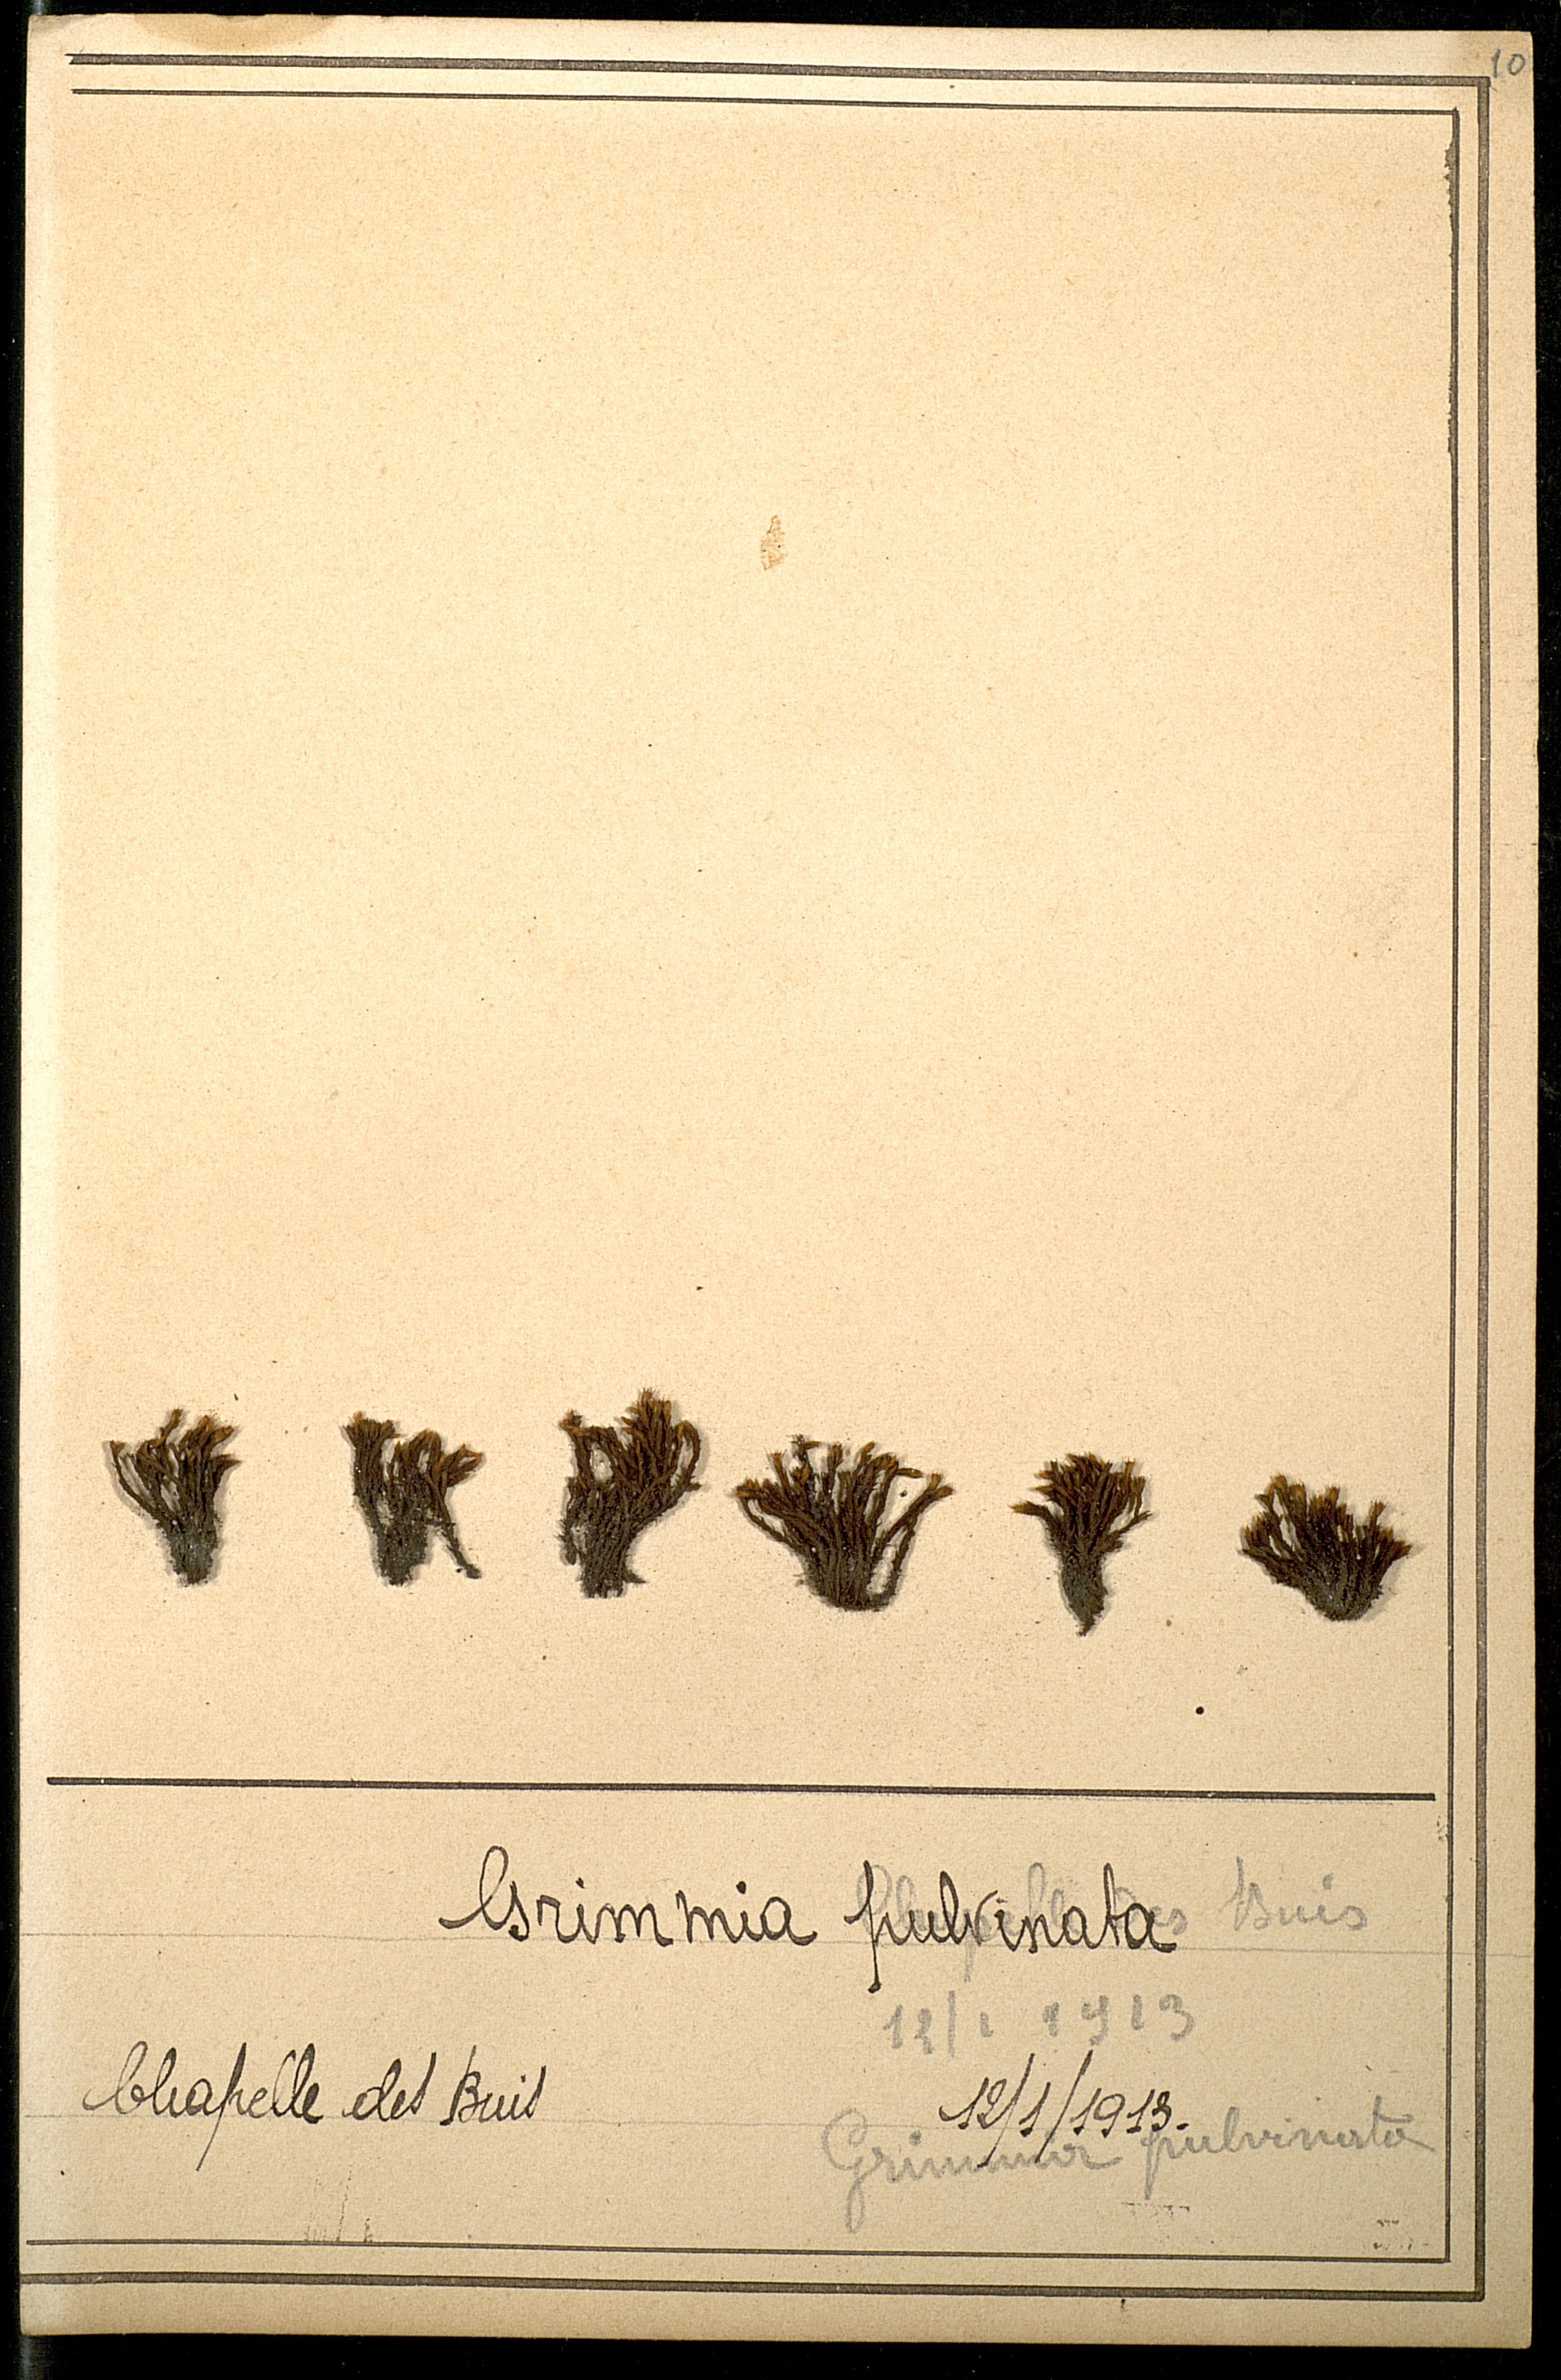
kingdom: Plantae
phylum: Bryophyta
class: Bryopsida
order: Grimmiales
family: Grimmiaceae
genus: Grimmia
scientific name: Grimmia pulvinata
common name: Grey-cushioned grimmia
